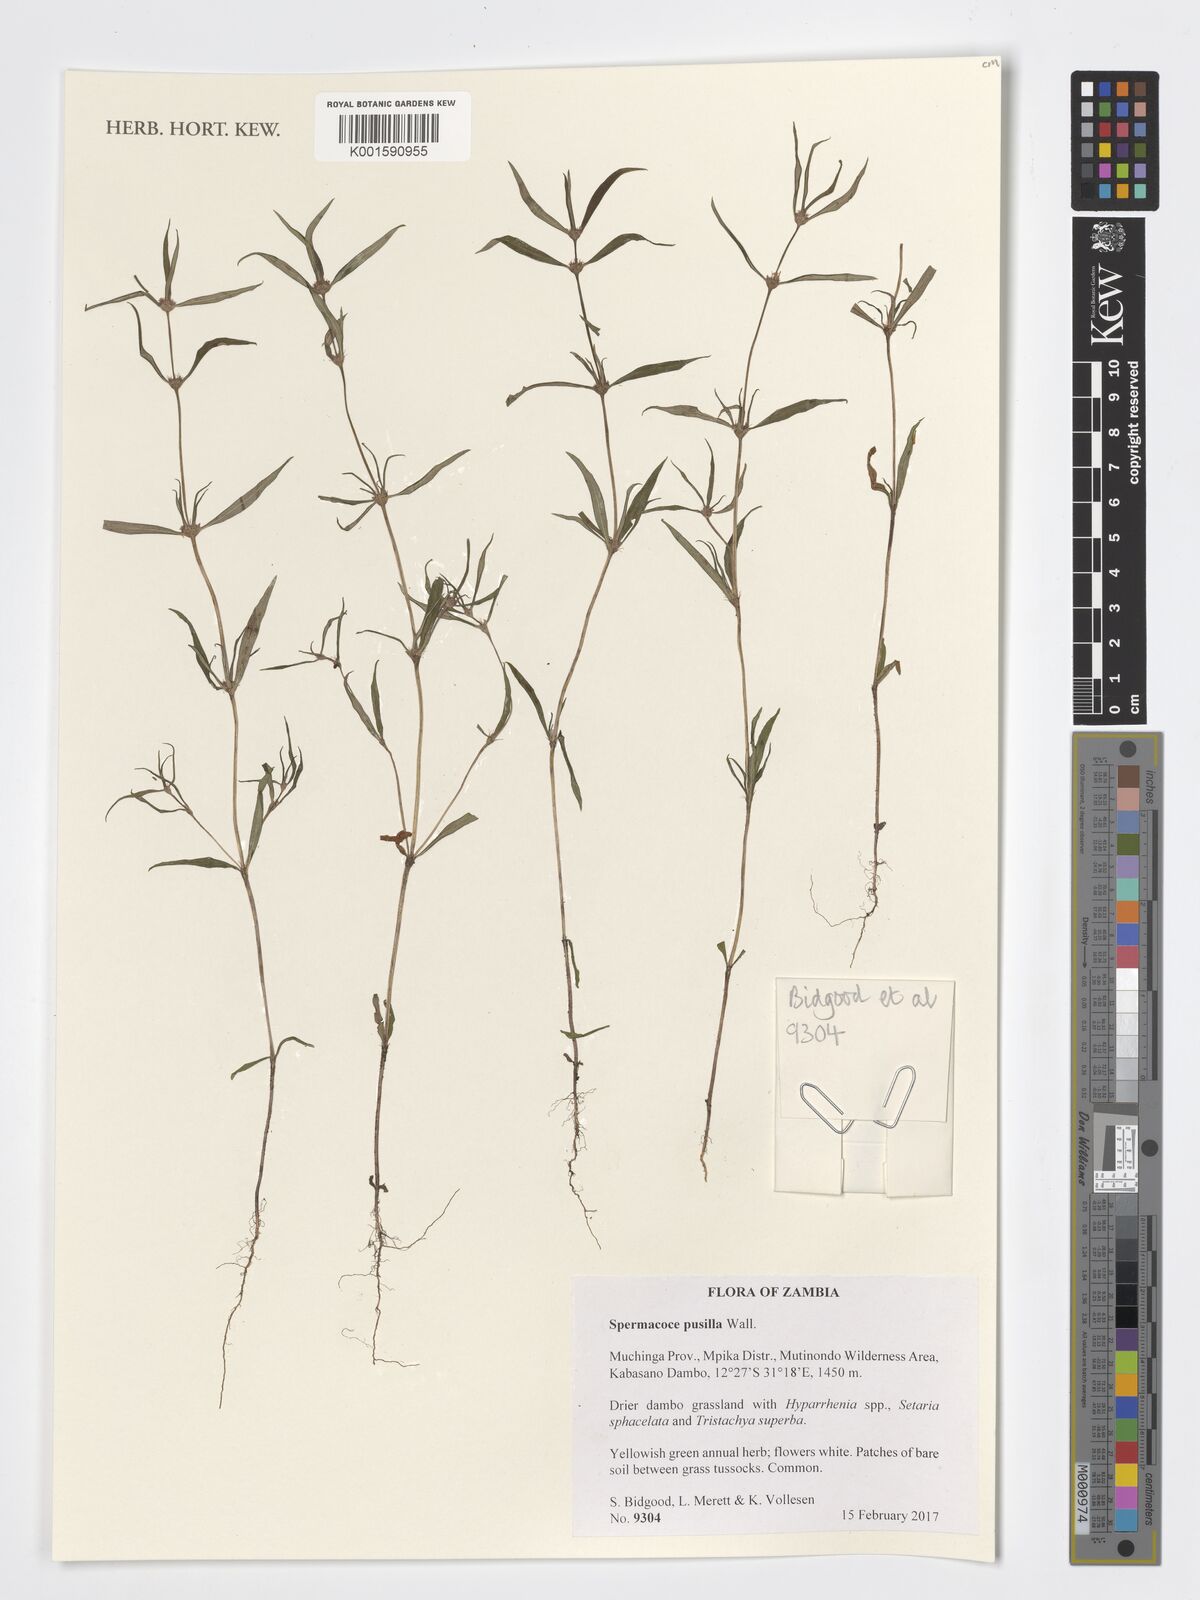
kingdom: Plantae
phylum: Tracheophyta
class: Magnoliopsida
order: Gentianales
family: Rubiaceae
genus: Spermacoce
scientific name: Spermacoce pusilla
